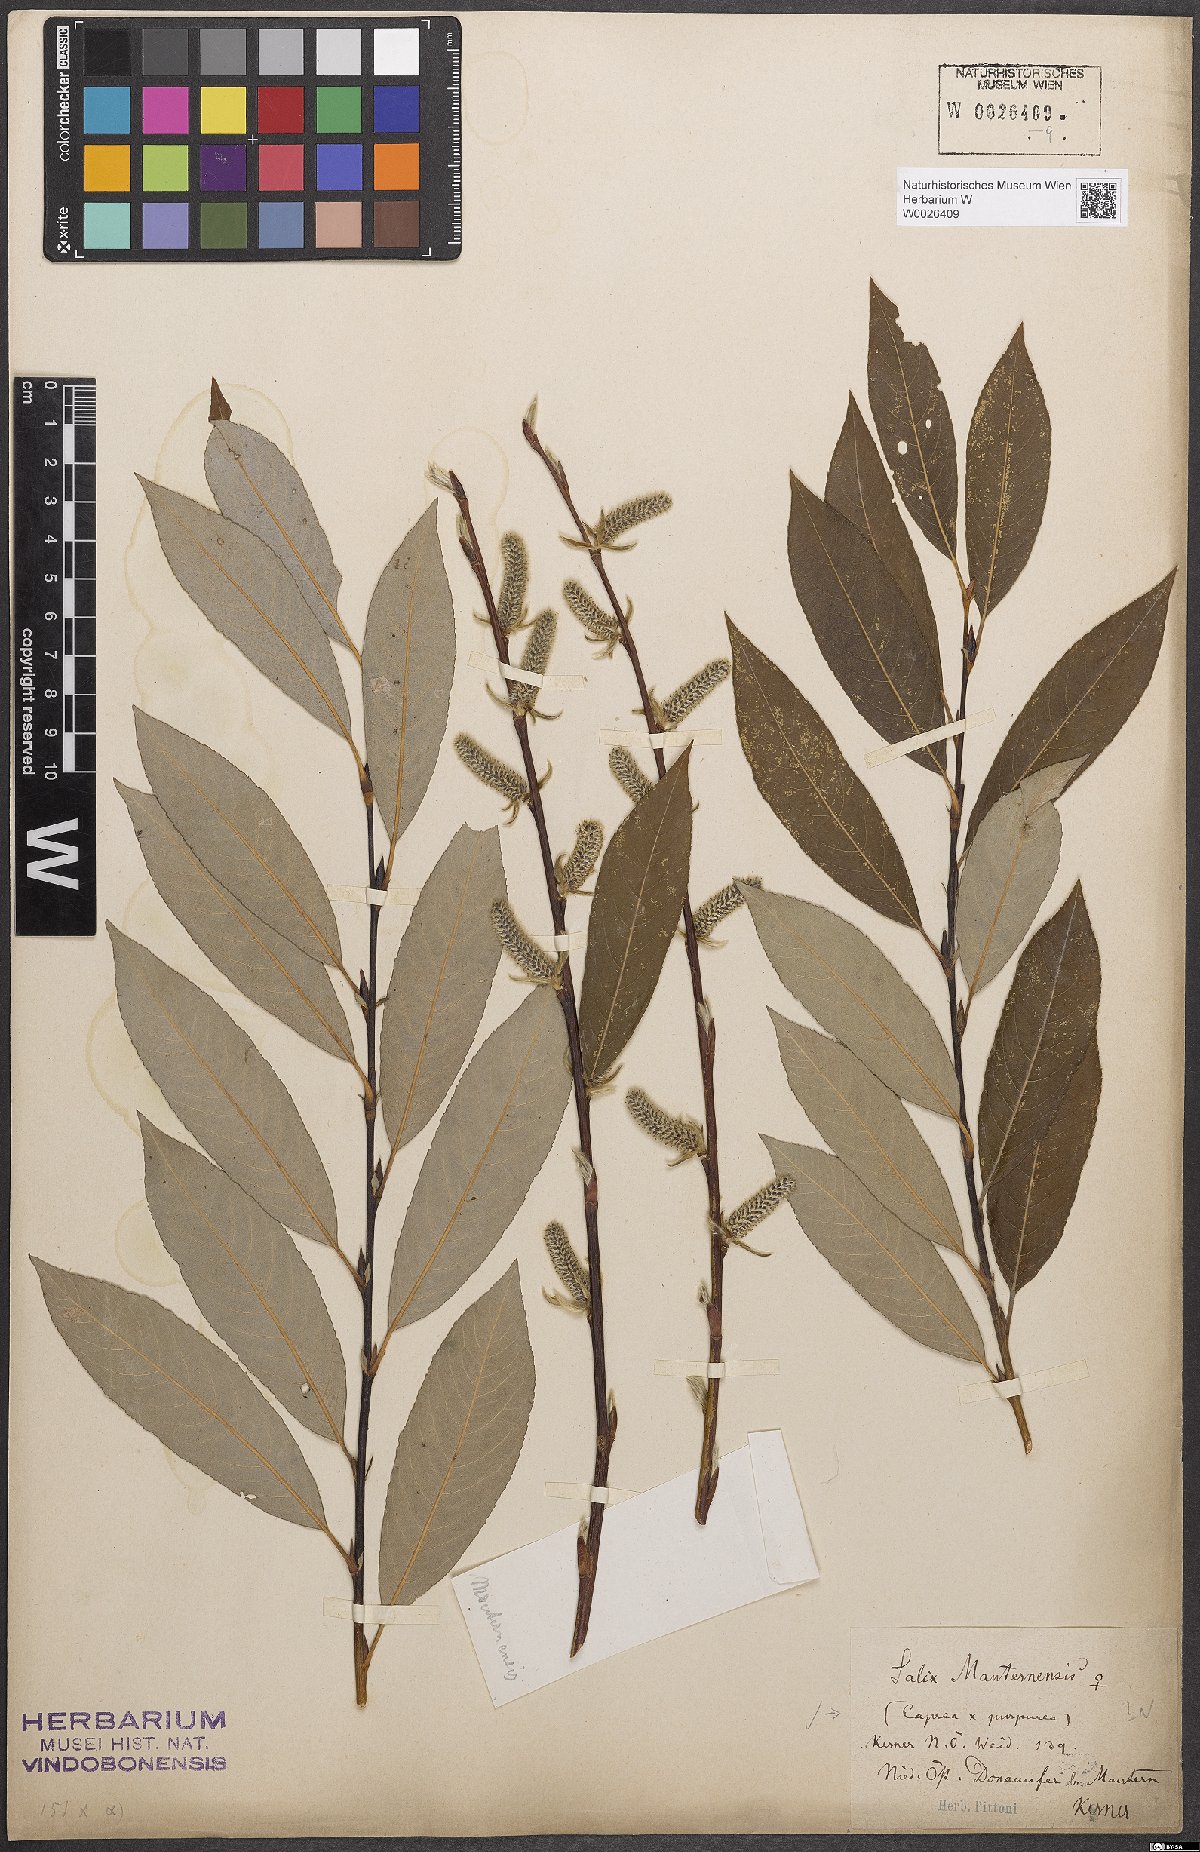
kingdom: Plantae
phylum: Tracheophyta
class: Magnoliopsida
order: Malpighiales
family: Salicaceae
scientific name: Salicaceae
